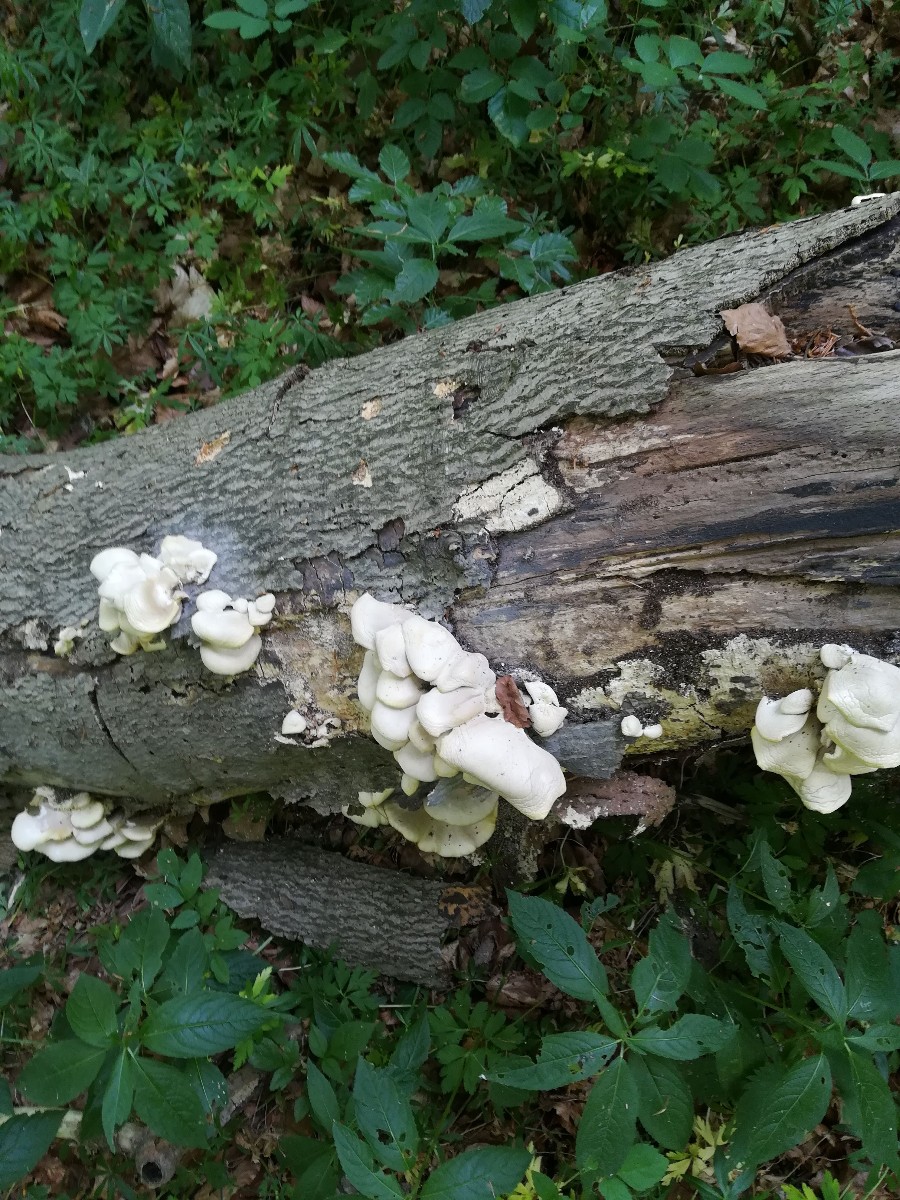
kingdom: Fungi
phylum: Basidiomycota
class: Agaricomycetes
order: Agaricales
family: Pleurotaceae
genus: Pleurotus
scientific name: Pleurotus pulmonarius
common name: sommer-østershat
